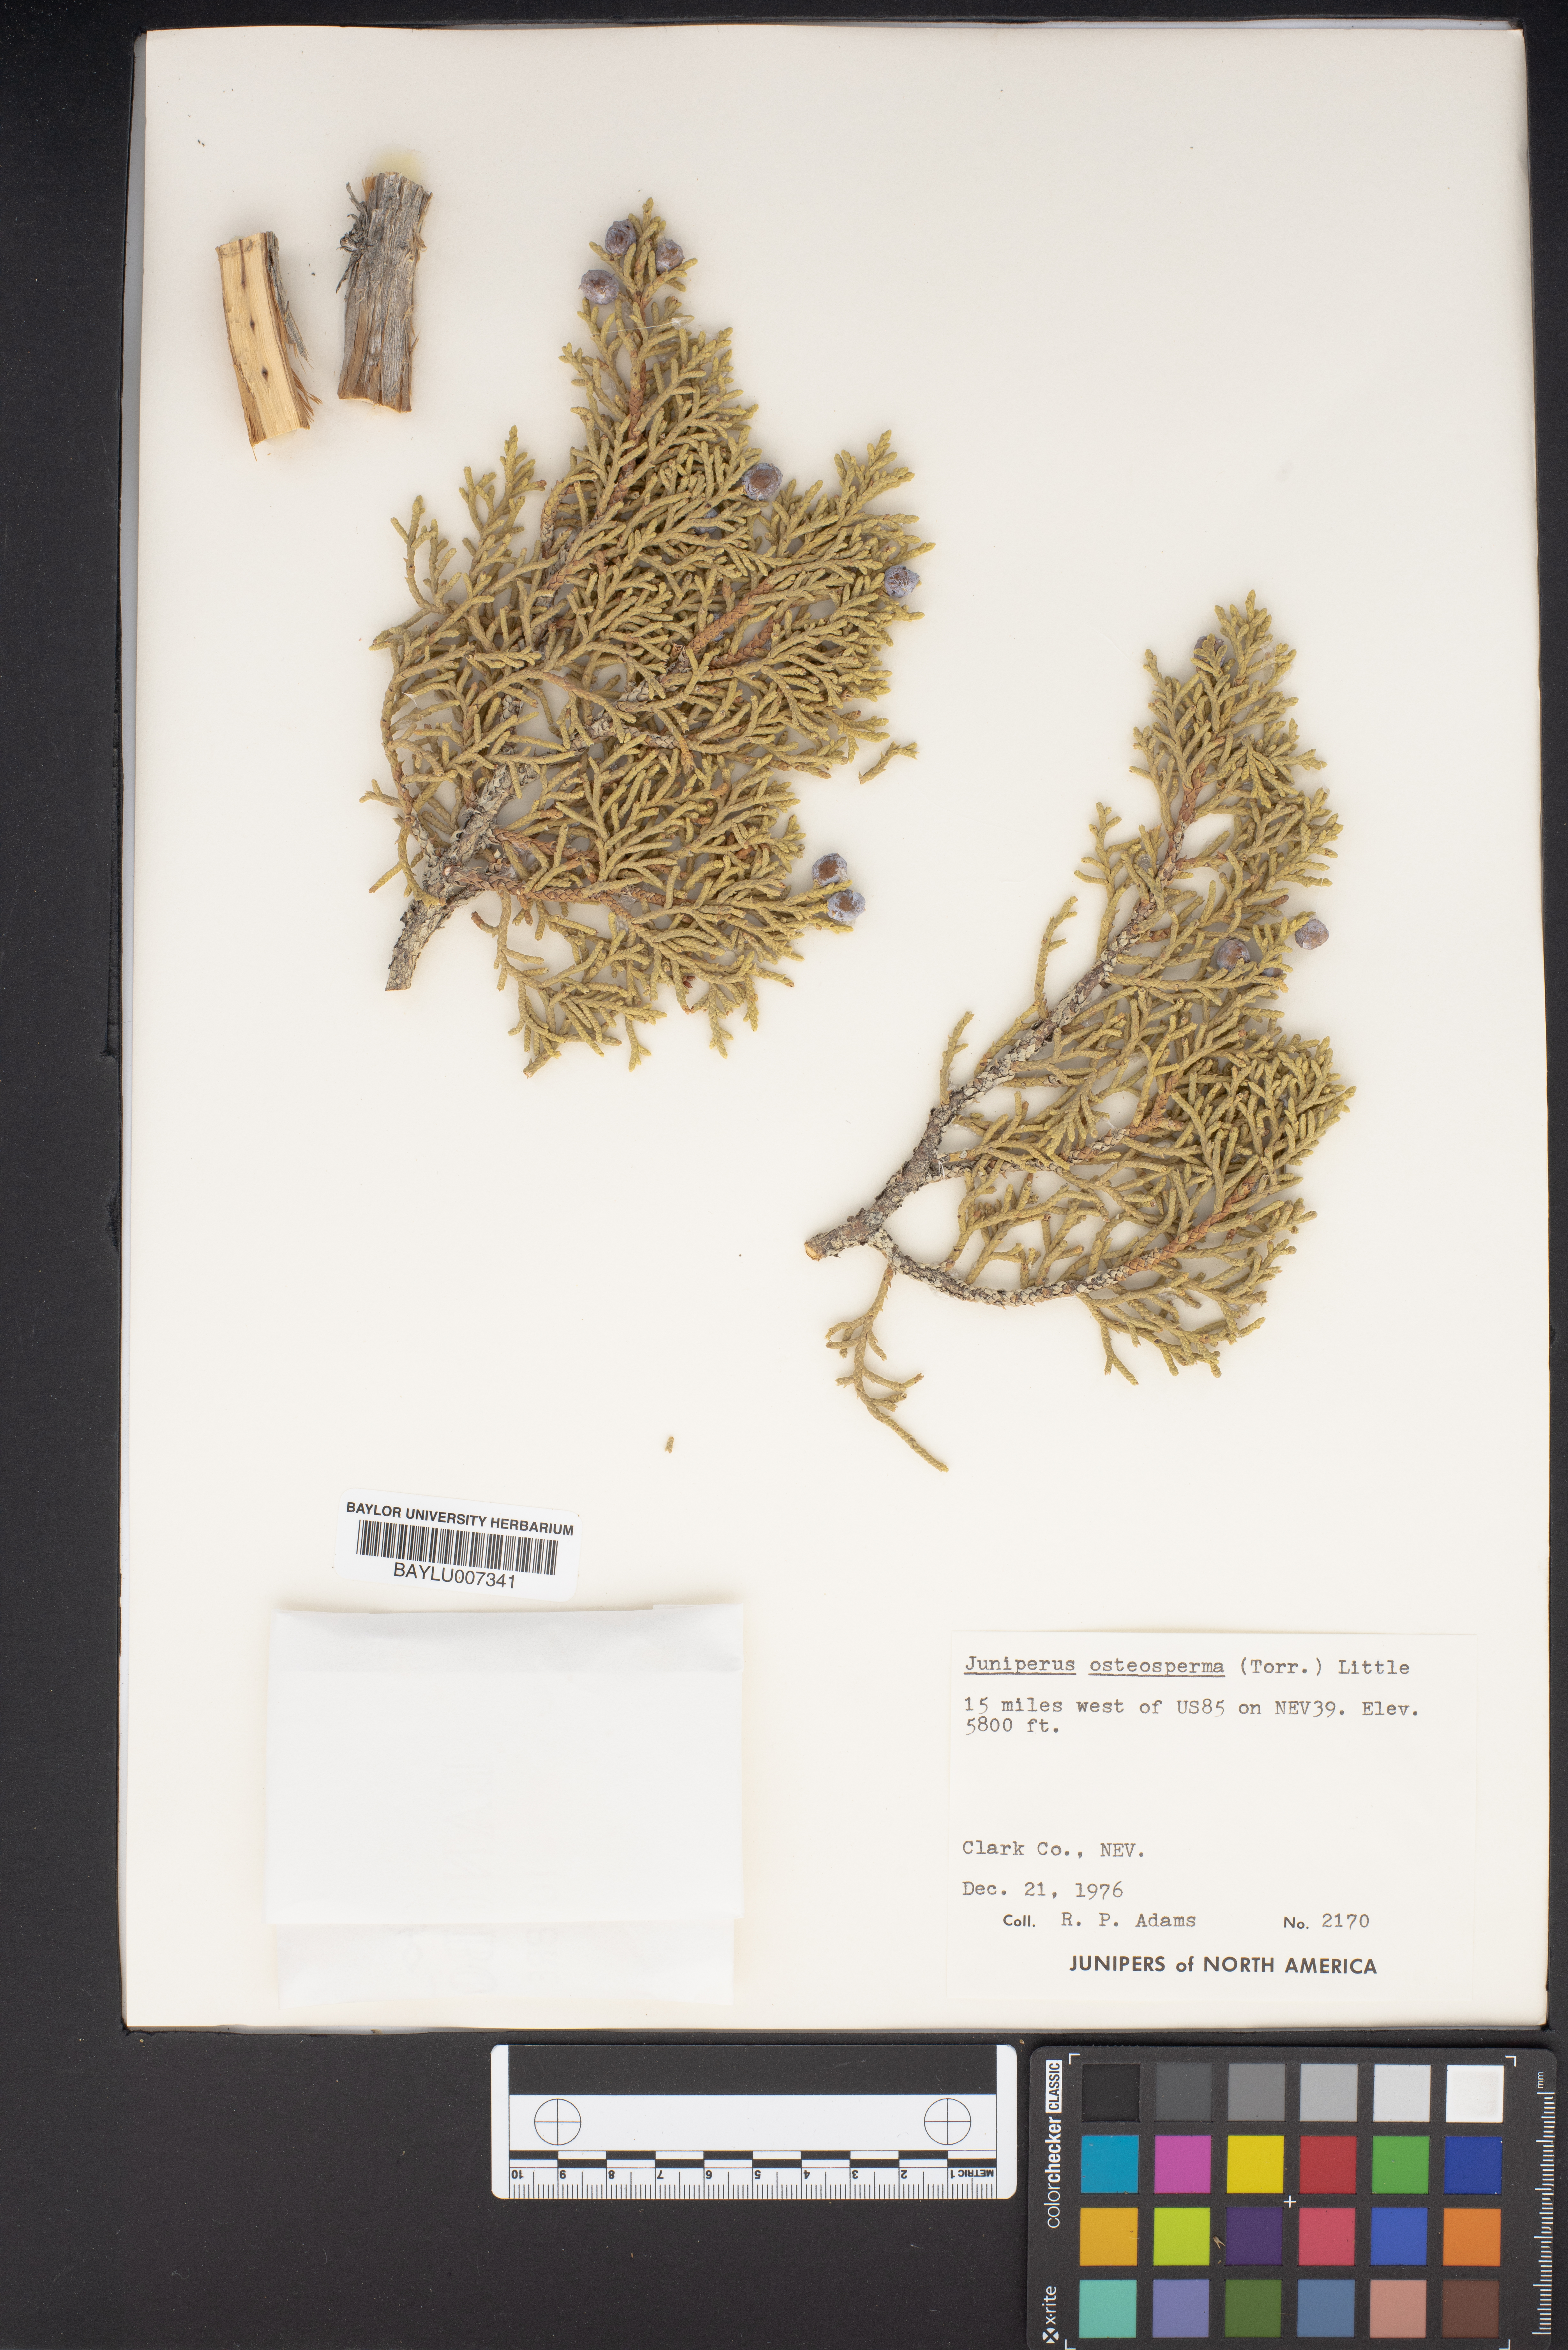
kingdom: Plantae
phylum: Tracheophyta
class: Pinopsida
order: Pinales
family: Cupressaceae
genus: Juniperus
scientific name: Juniperus osteosperma
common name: Utah juniper
